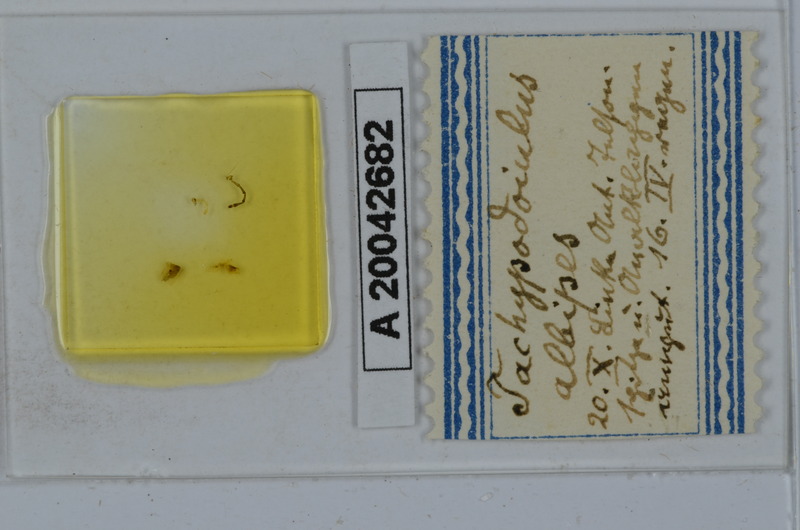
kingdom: Animalia
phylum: Arthropoda
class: Diplopoda
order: Julida
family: Julidae
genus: Tachypodoiulus
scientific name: Tachypodoiulus niger
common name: White-legged snake millipede
